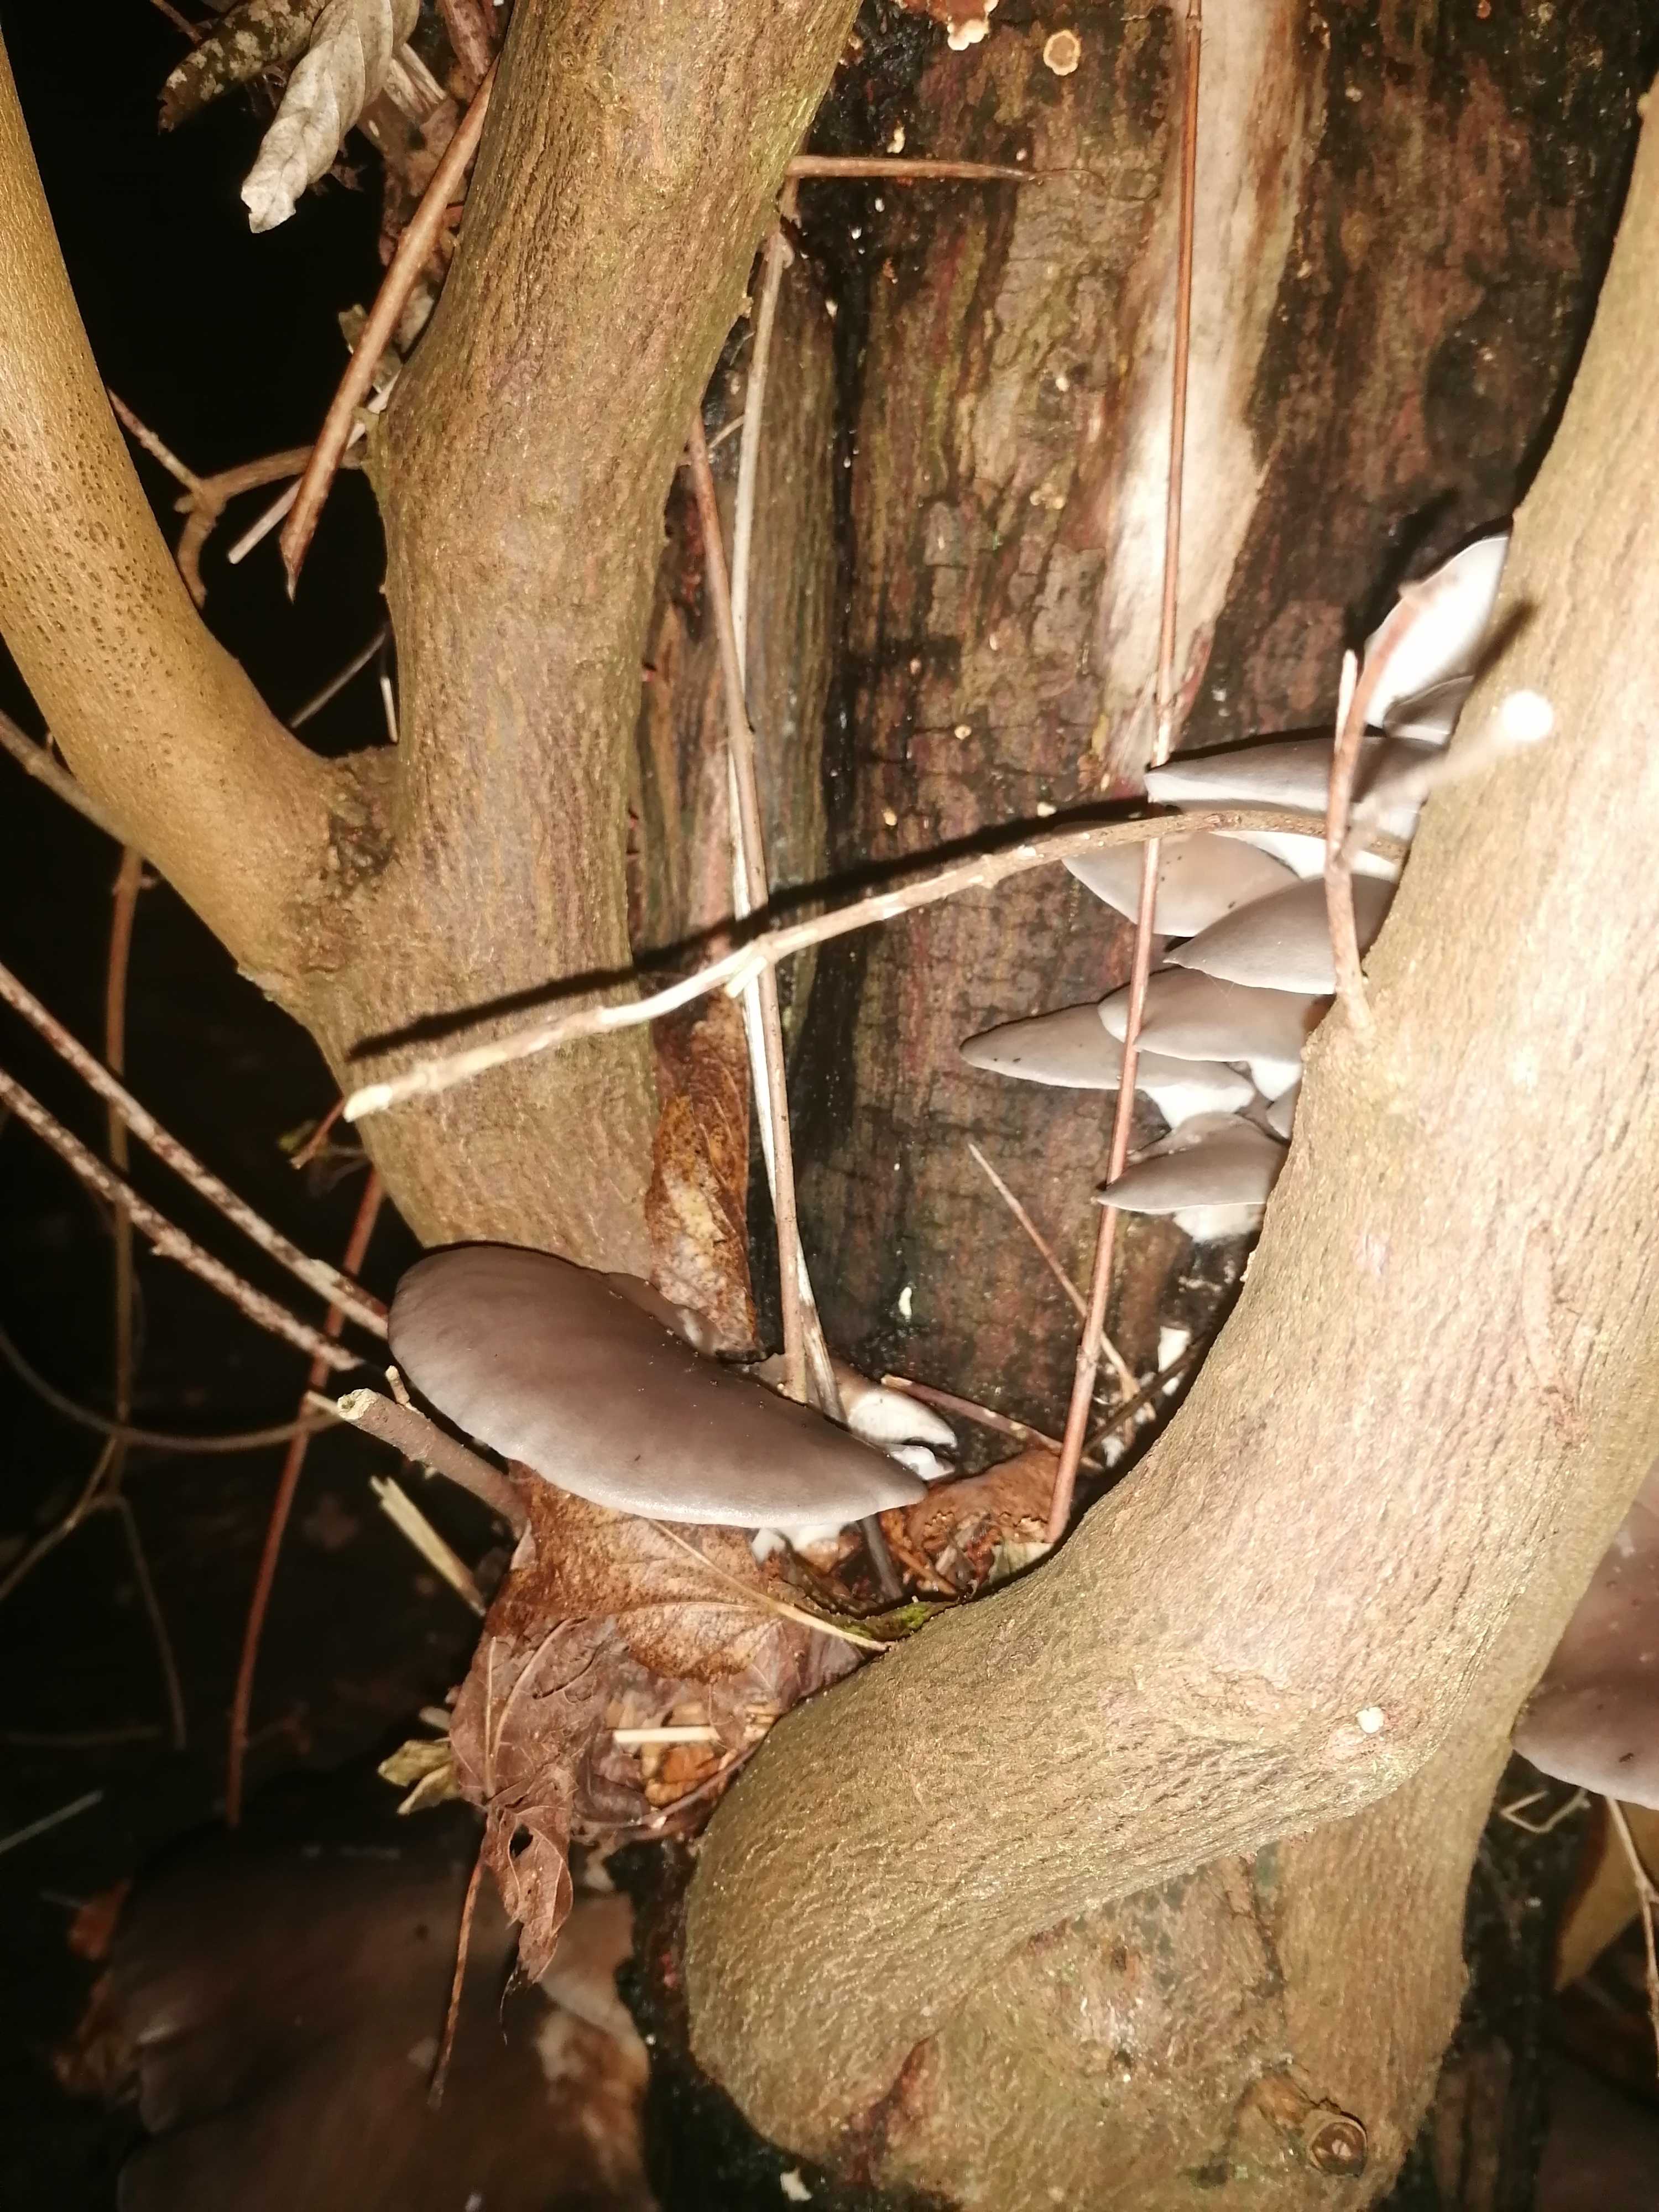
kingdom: Fungi
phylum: Basidiomycota
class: Agaricomycetes
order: Agaricales
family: Pleurotaceae
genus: Pleurotus
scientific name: Pleurotus ostreatus
